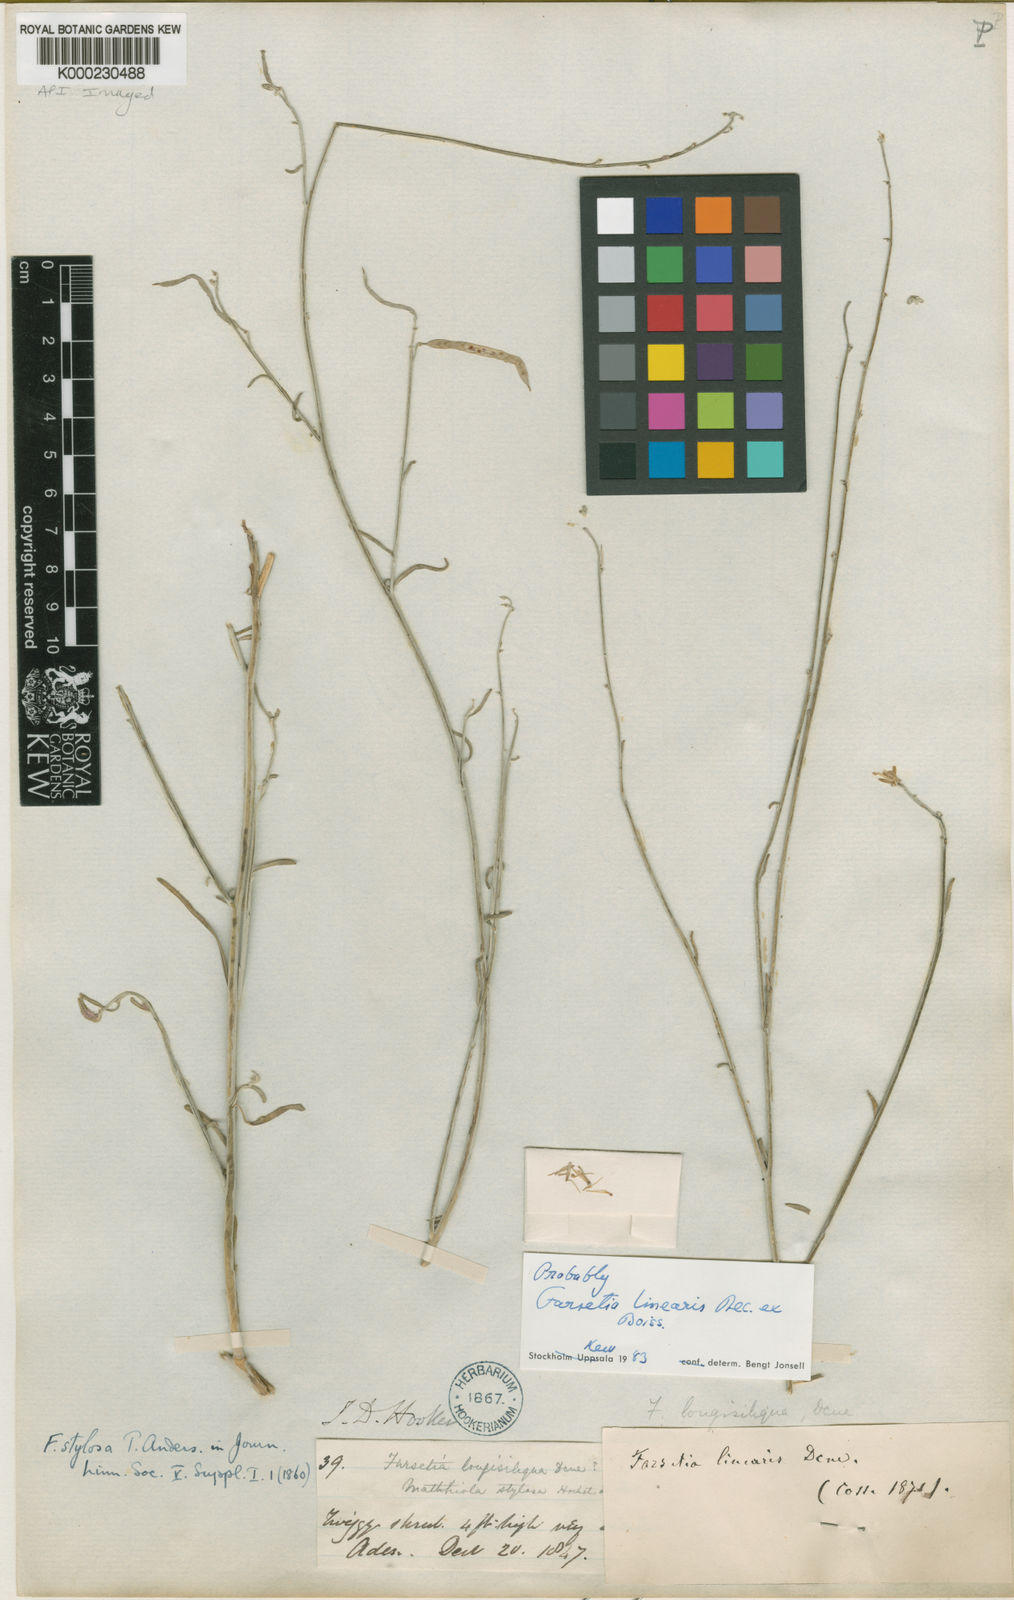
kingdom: Plantae
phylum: Tracheophyta
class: Magnoliopsida
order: Brassicales
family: Brassicaceae
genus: Farsetia
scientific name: Farsetia stylosa
